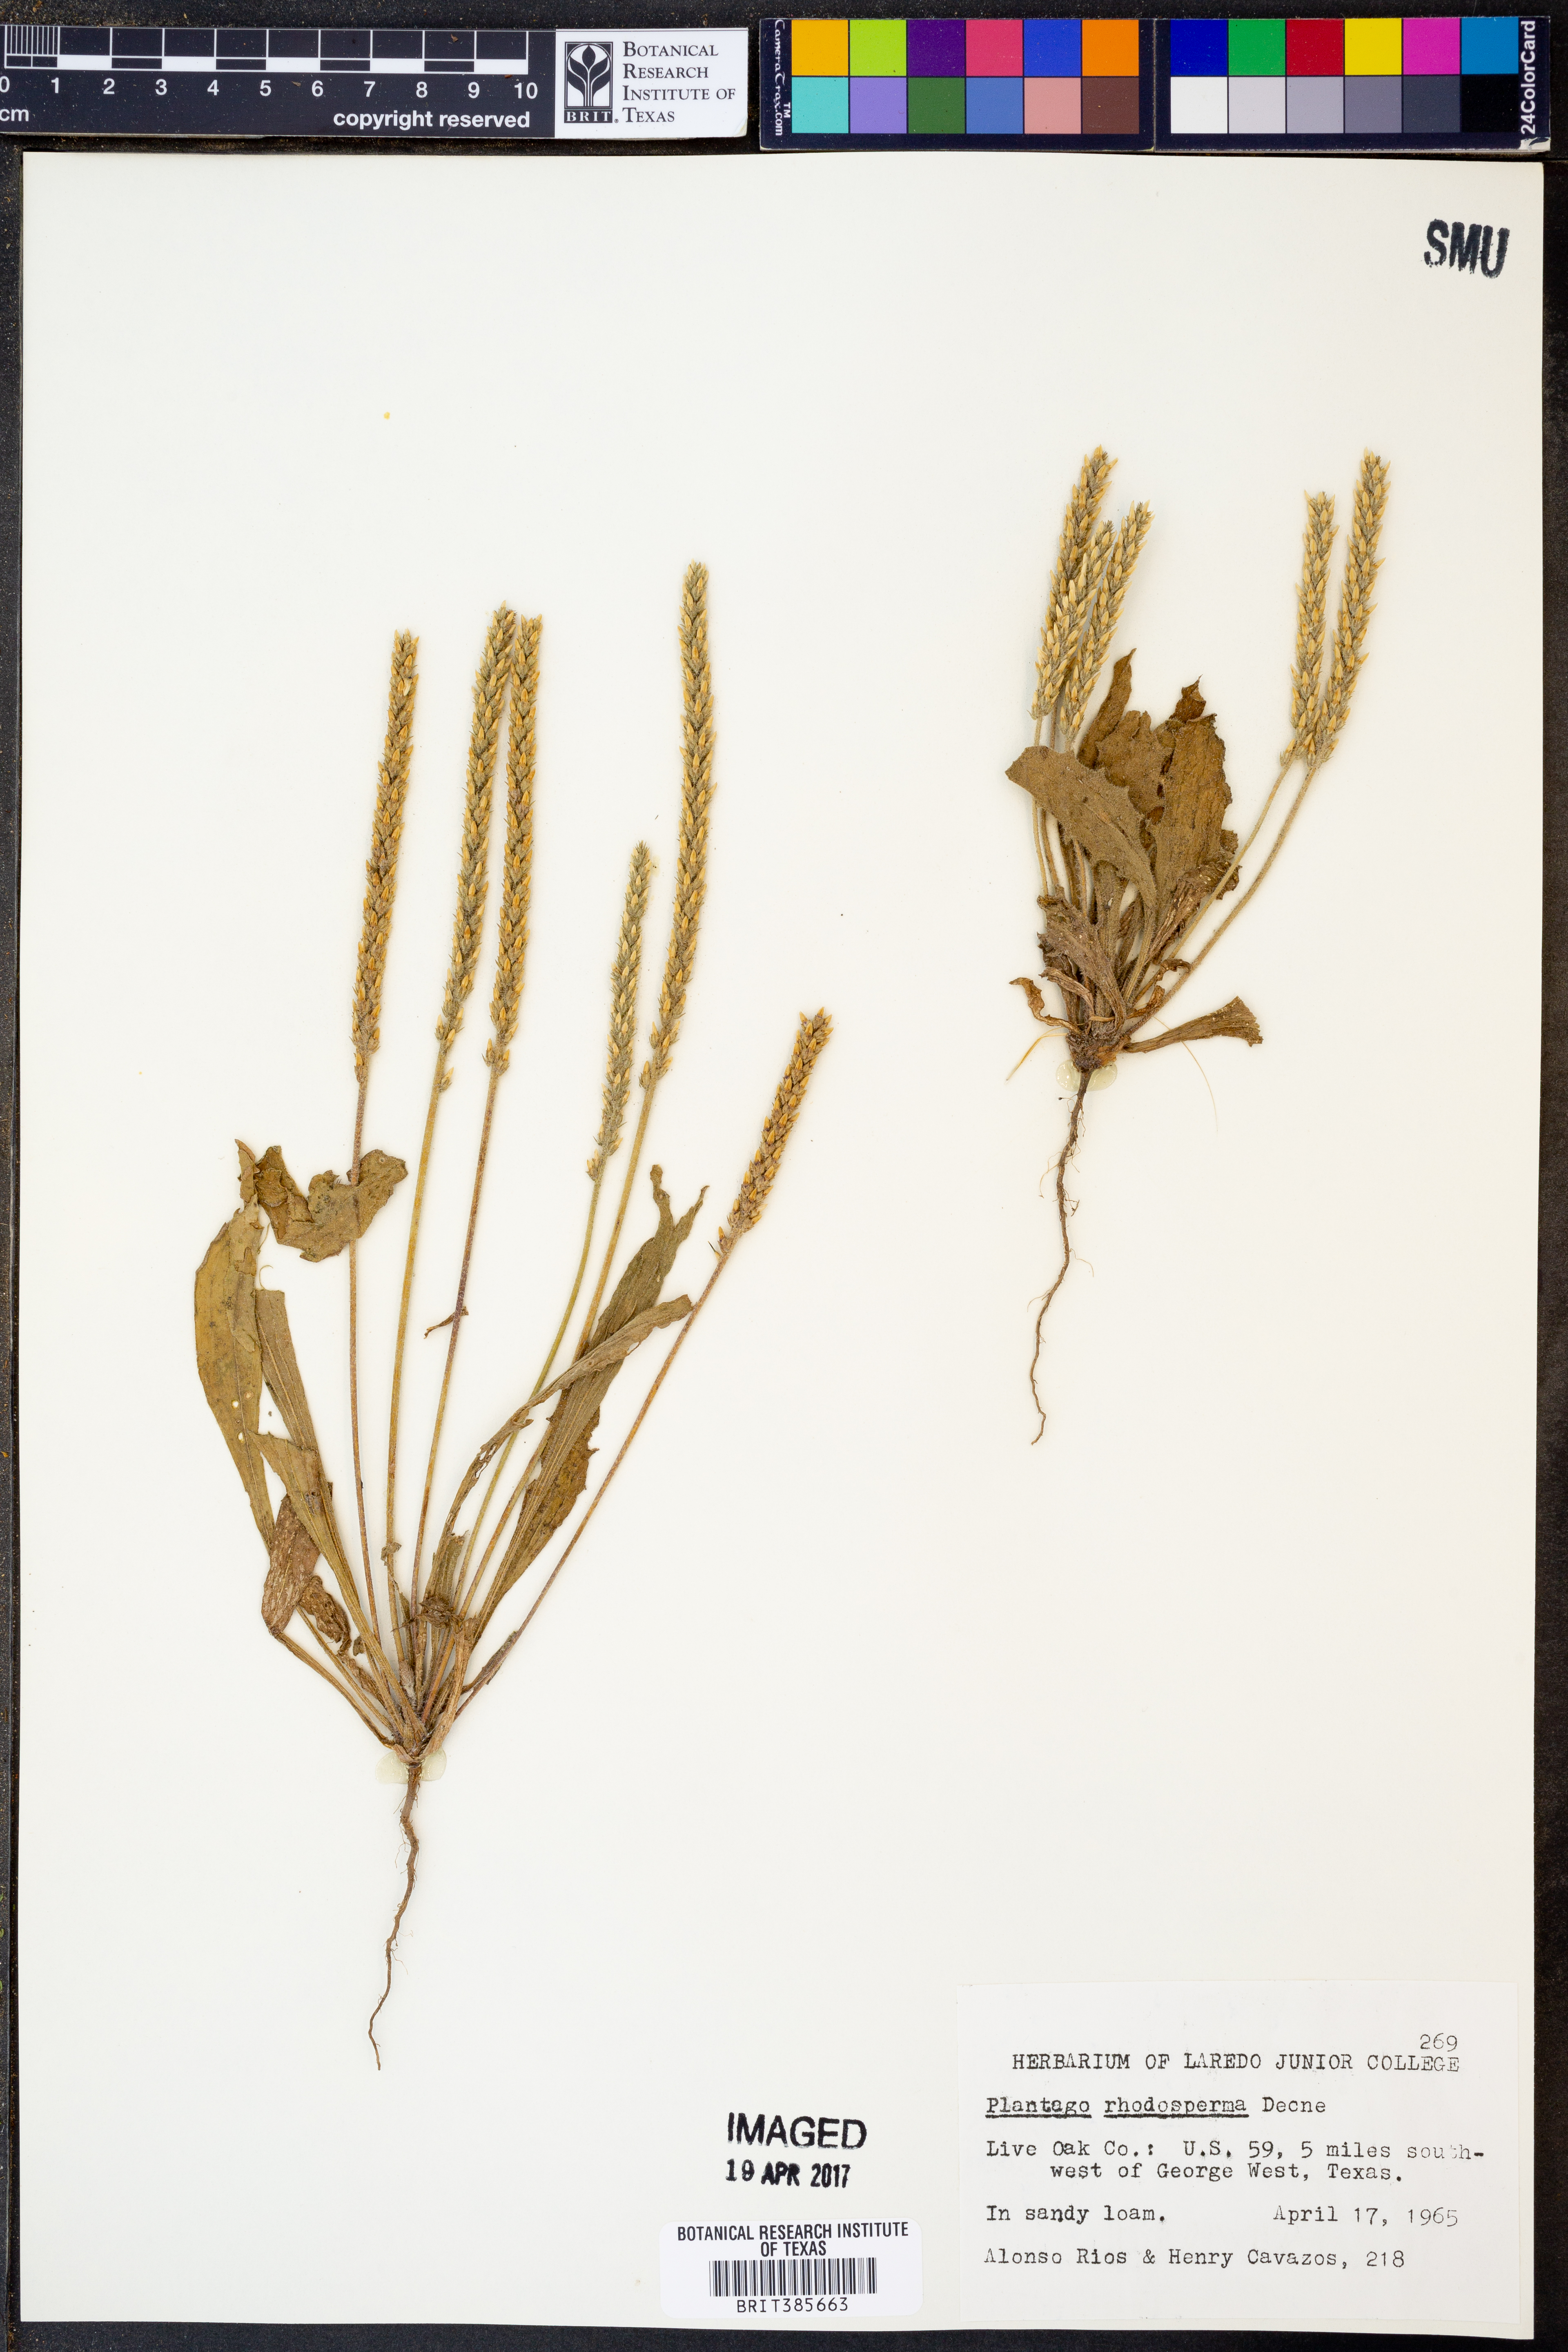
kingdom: Plantae
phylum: Tracheophyta
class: Magnoliopsida
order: Lamiales
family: Plantaginaceae
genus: Plantago
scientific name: Plantago rhodosperma
